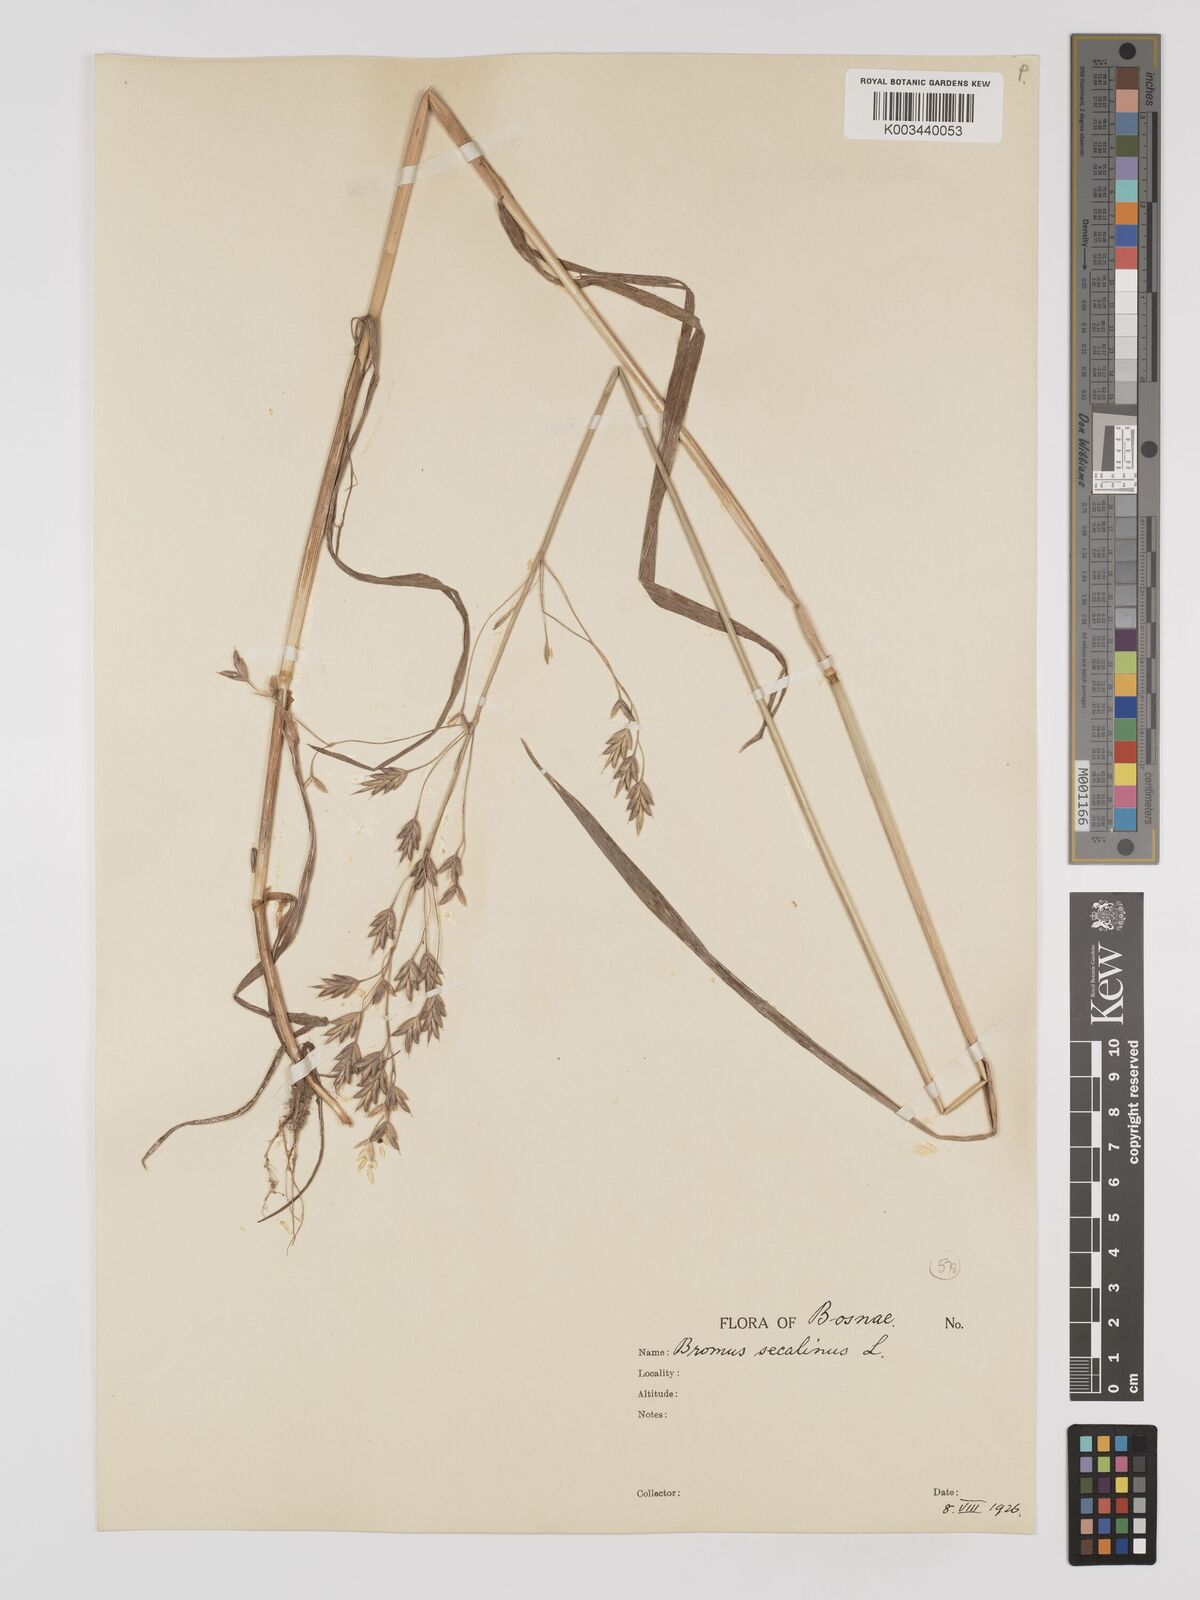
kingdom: Plantae
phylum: Tracheophyta
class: Liliopsida
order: Poales
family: Poaceae
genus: Bromus
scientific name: Bromus secalinus
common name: Rye brome
